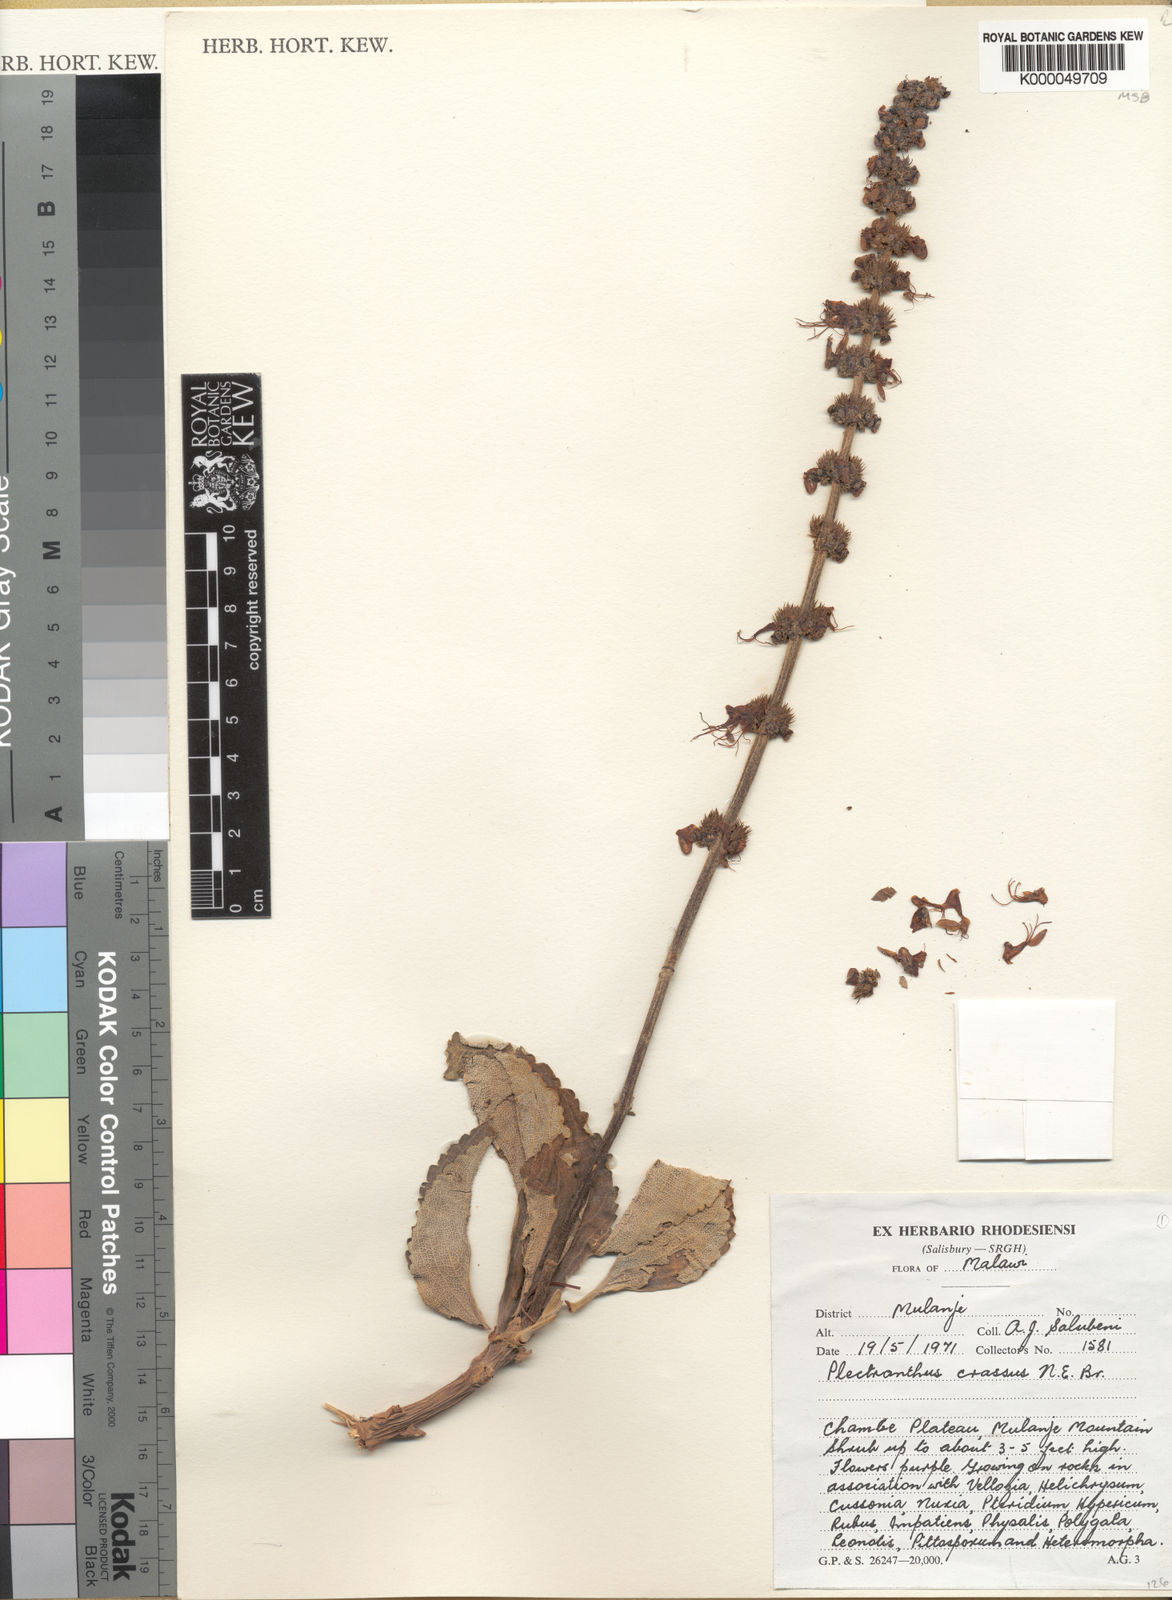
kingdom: Plantae
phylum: Tracheophyta
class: Magnoliopsida
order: Lamiales
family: Lamiaceae
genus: Coleus
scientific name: Coleus crassus
